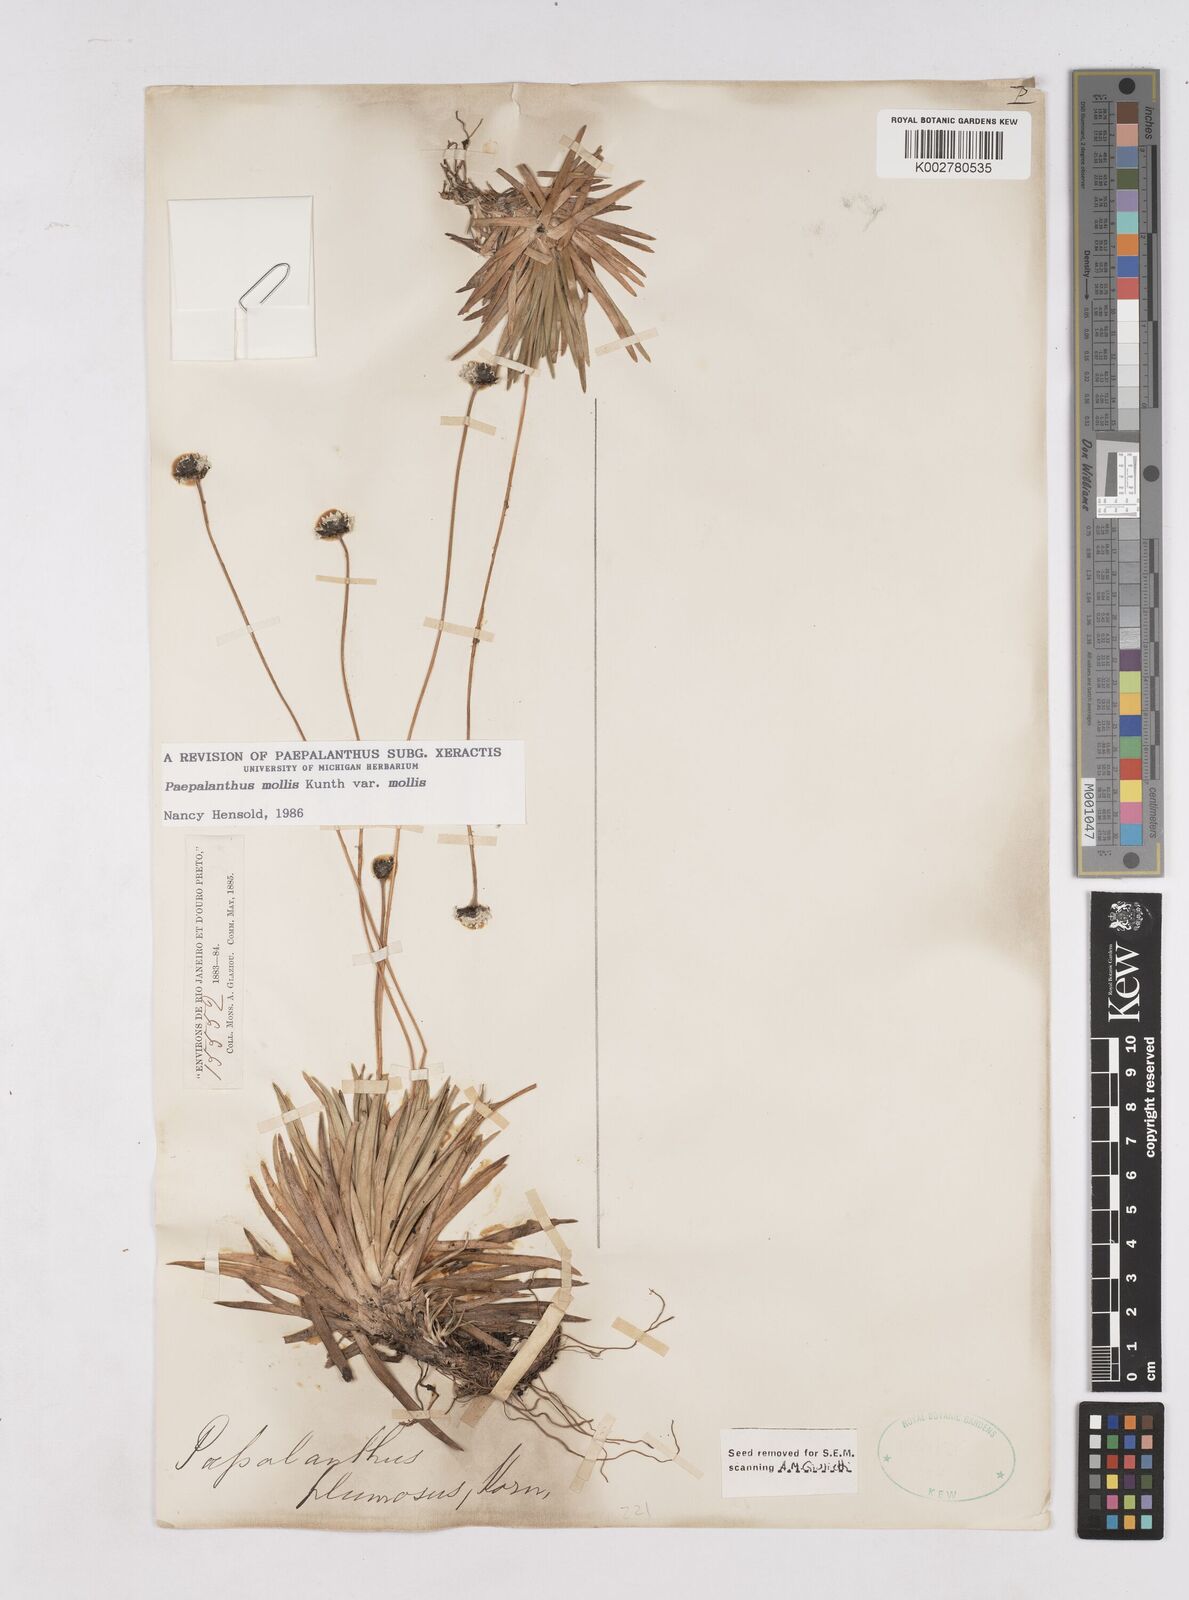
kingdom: Plantae
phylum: Tracheophyta
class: Liliopsida
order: Poales
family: Eriocaulaceae
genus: Paepalanthus
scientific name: Paepalanthus mollis
